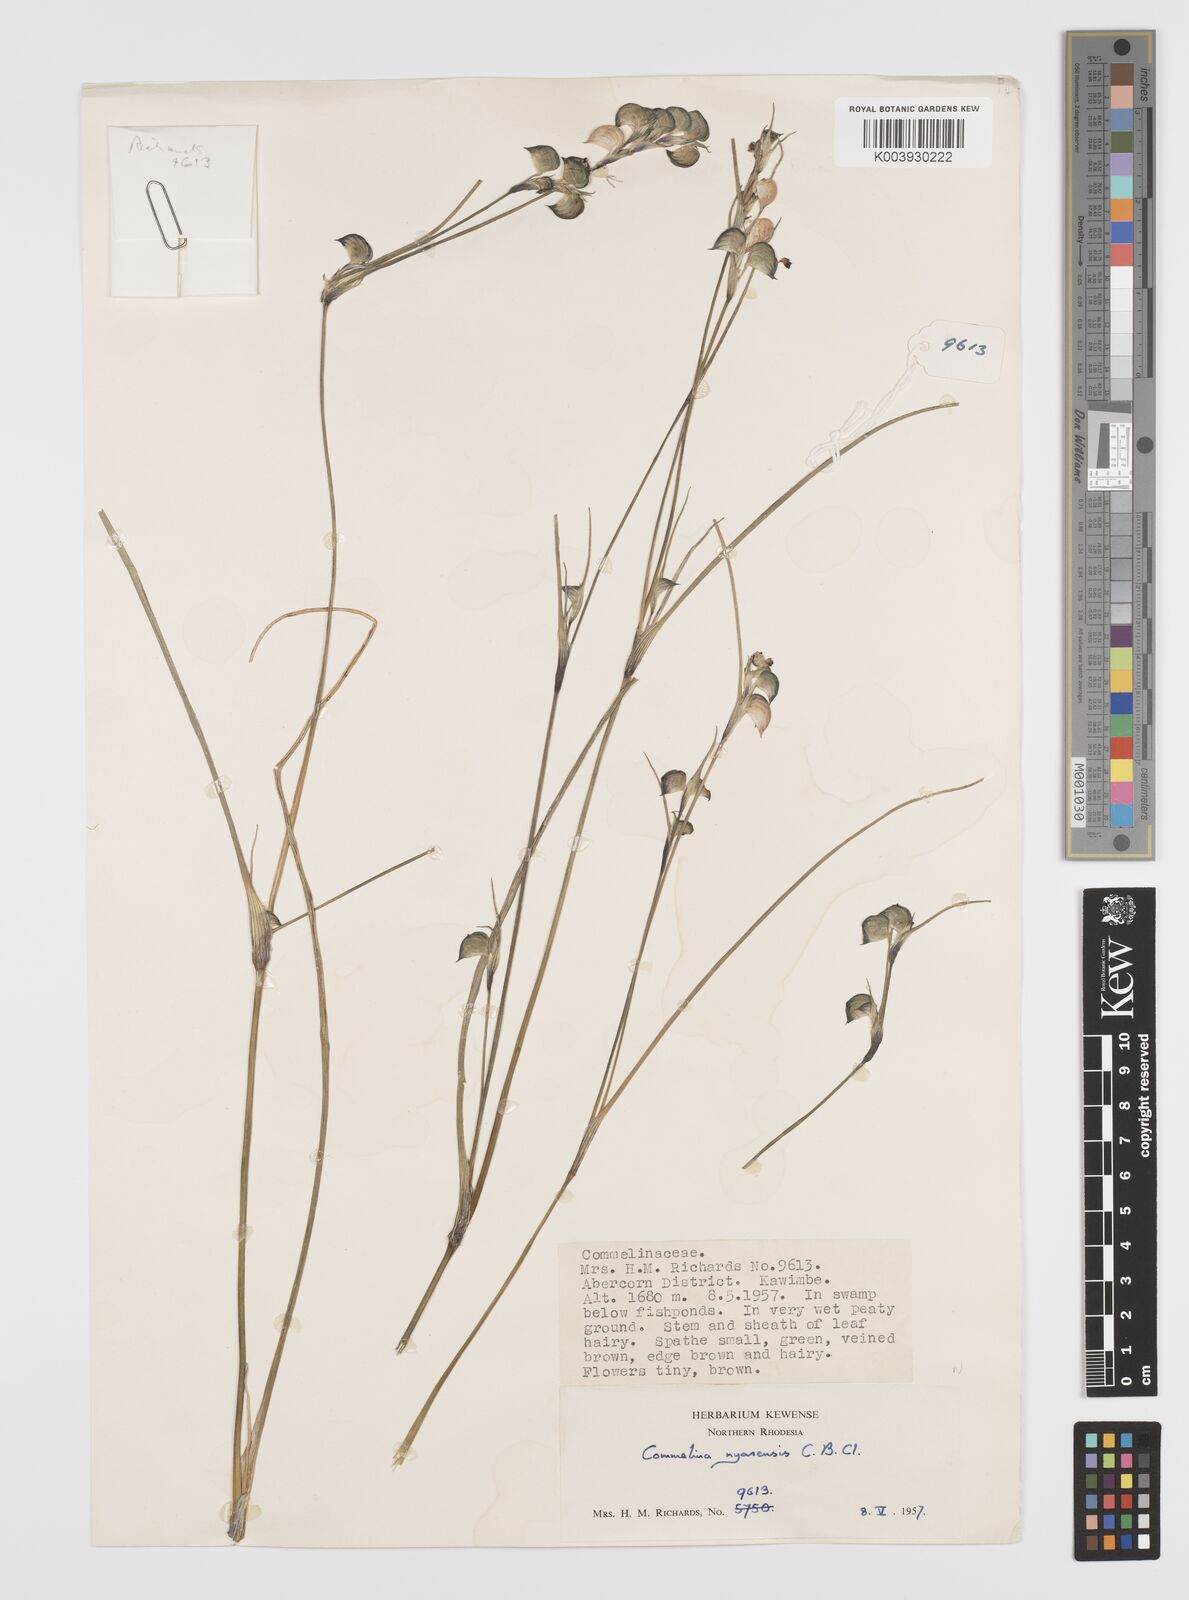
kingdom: Plantae
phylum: Tracheophyta
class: Liliopsida
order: Commelinales
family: Commelinaceae
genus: Commelina
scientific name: Commelina nyasensis
